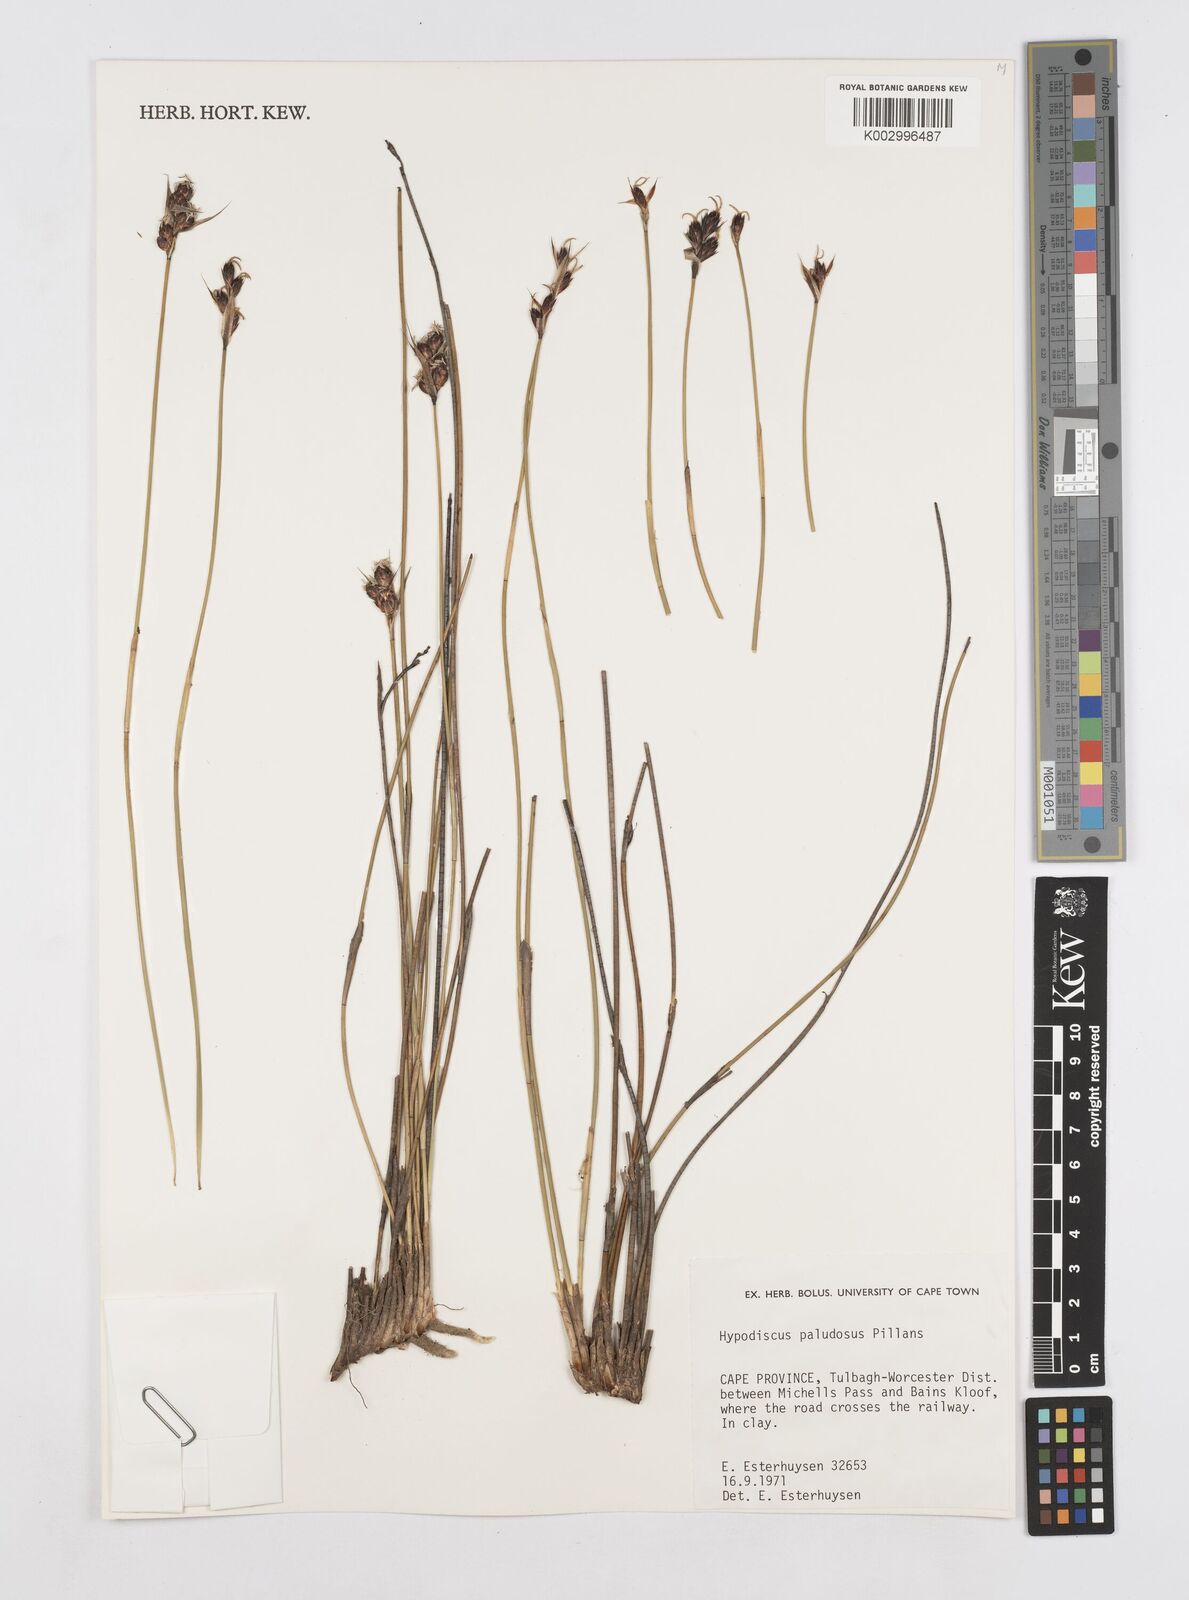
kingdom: Plantae
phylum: Tracheophyta
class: Liliopsida
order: Poales
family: Restionaceae
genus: Hypodiscus
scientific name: Hypodiscus rugosus
